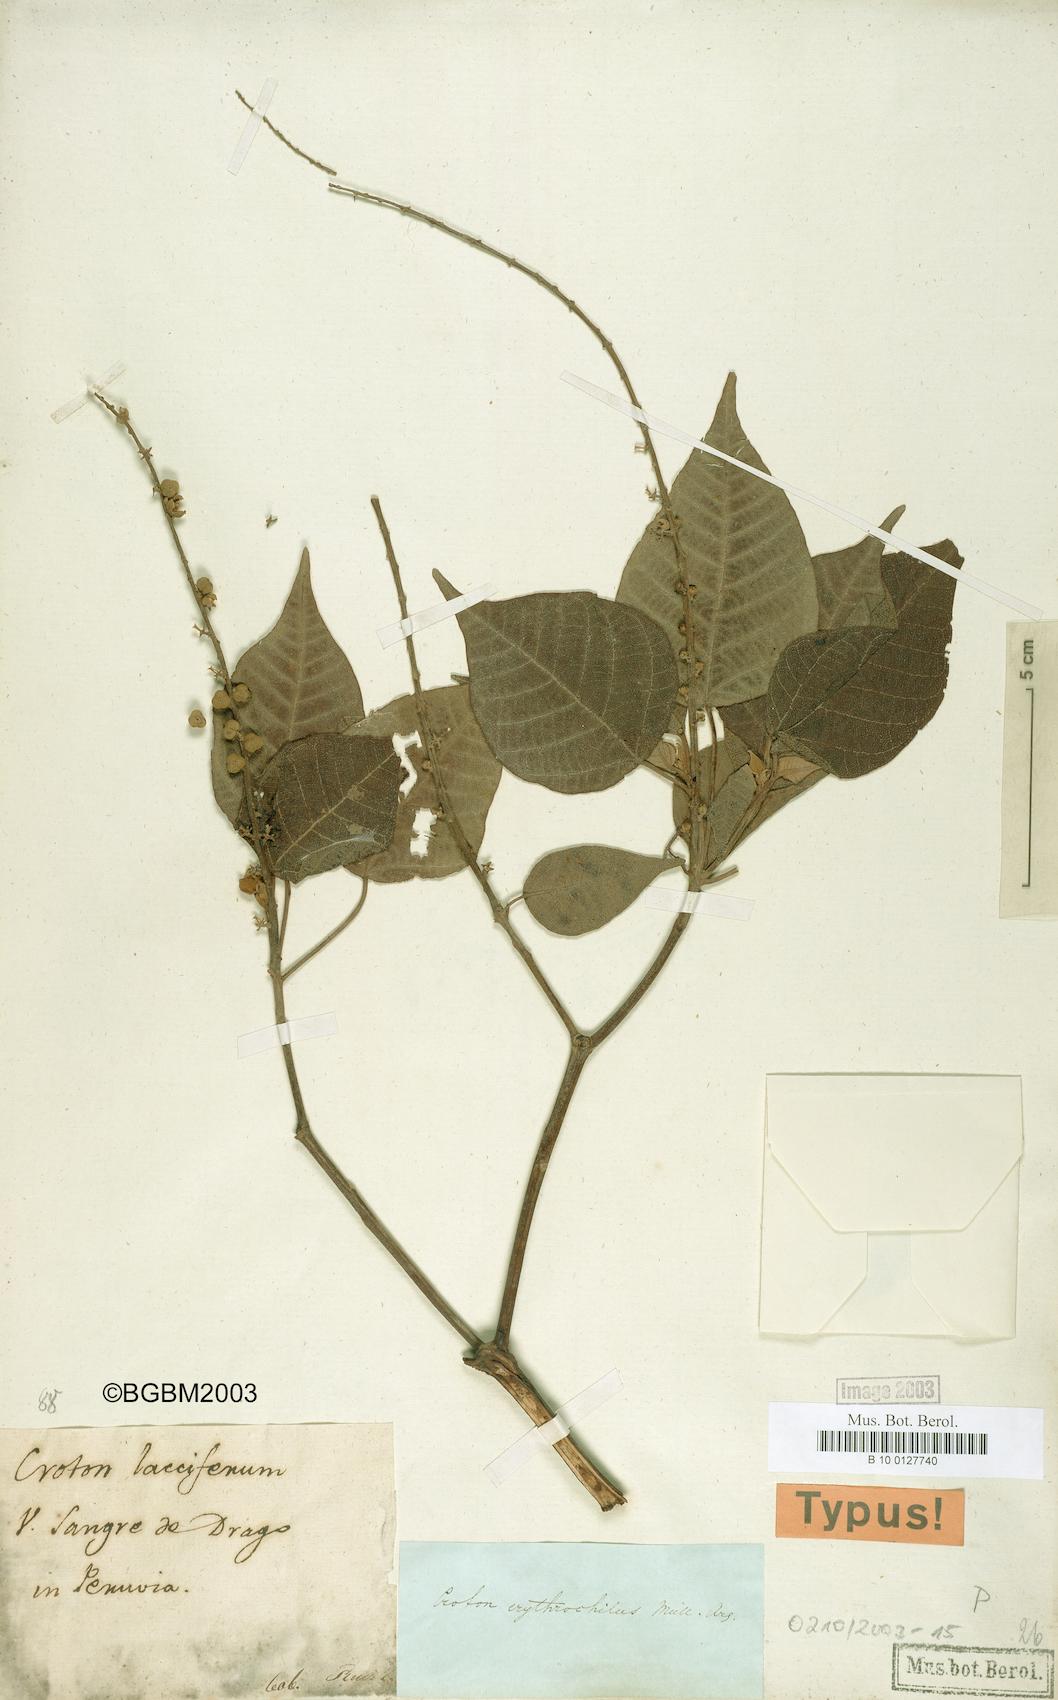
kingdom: Plantae
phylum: Tracheophyta
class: Magnoliopsida
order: Malpighiales
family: Euphorbiaceae
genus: Croton
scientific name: Croton erythrochilus
